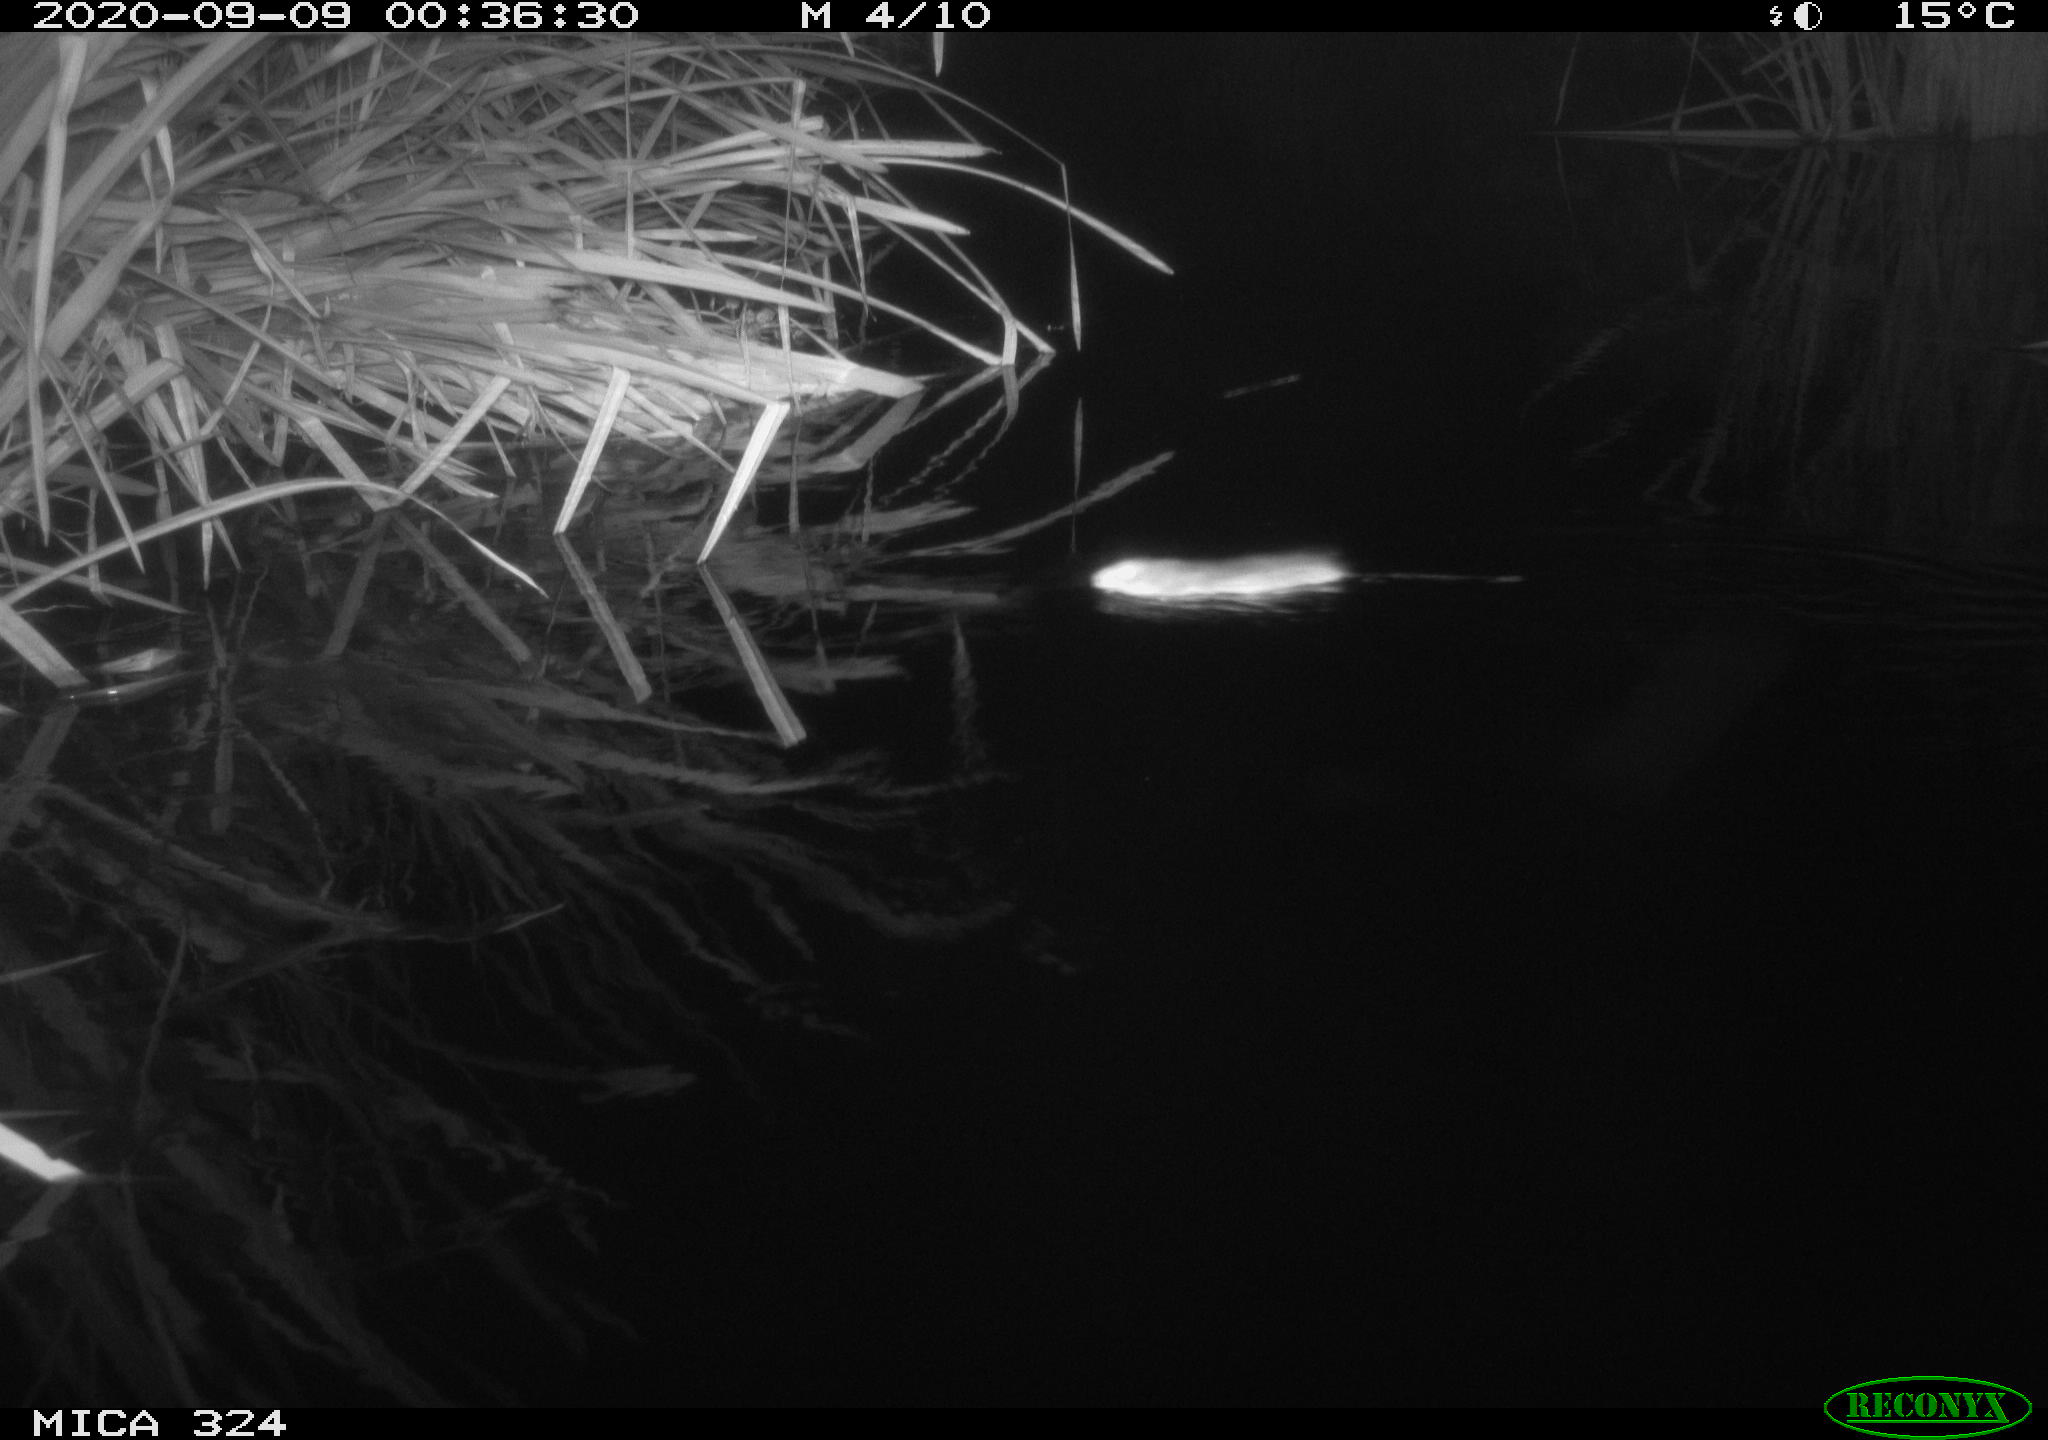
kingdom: Animalia
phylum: Chordata
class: Mammalia
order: Rodentia
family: Cricetidae
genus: Ondatra
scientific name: Ondatra zibethicus
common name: Muskrat
